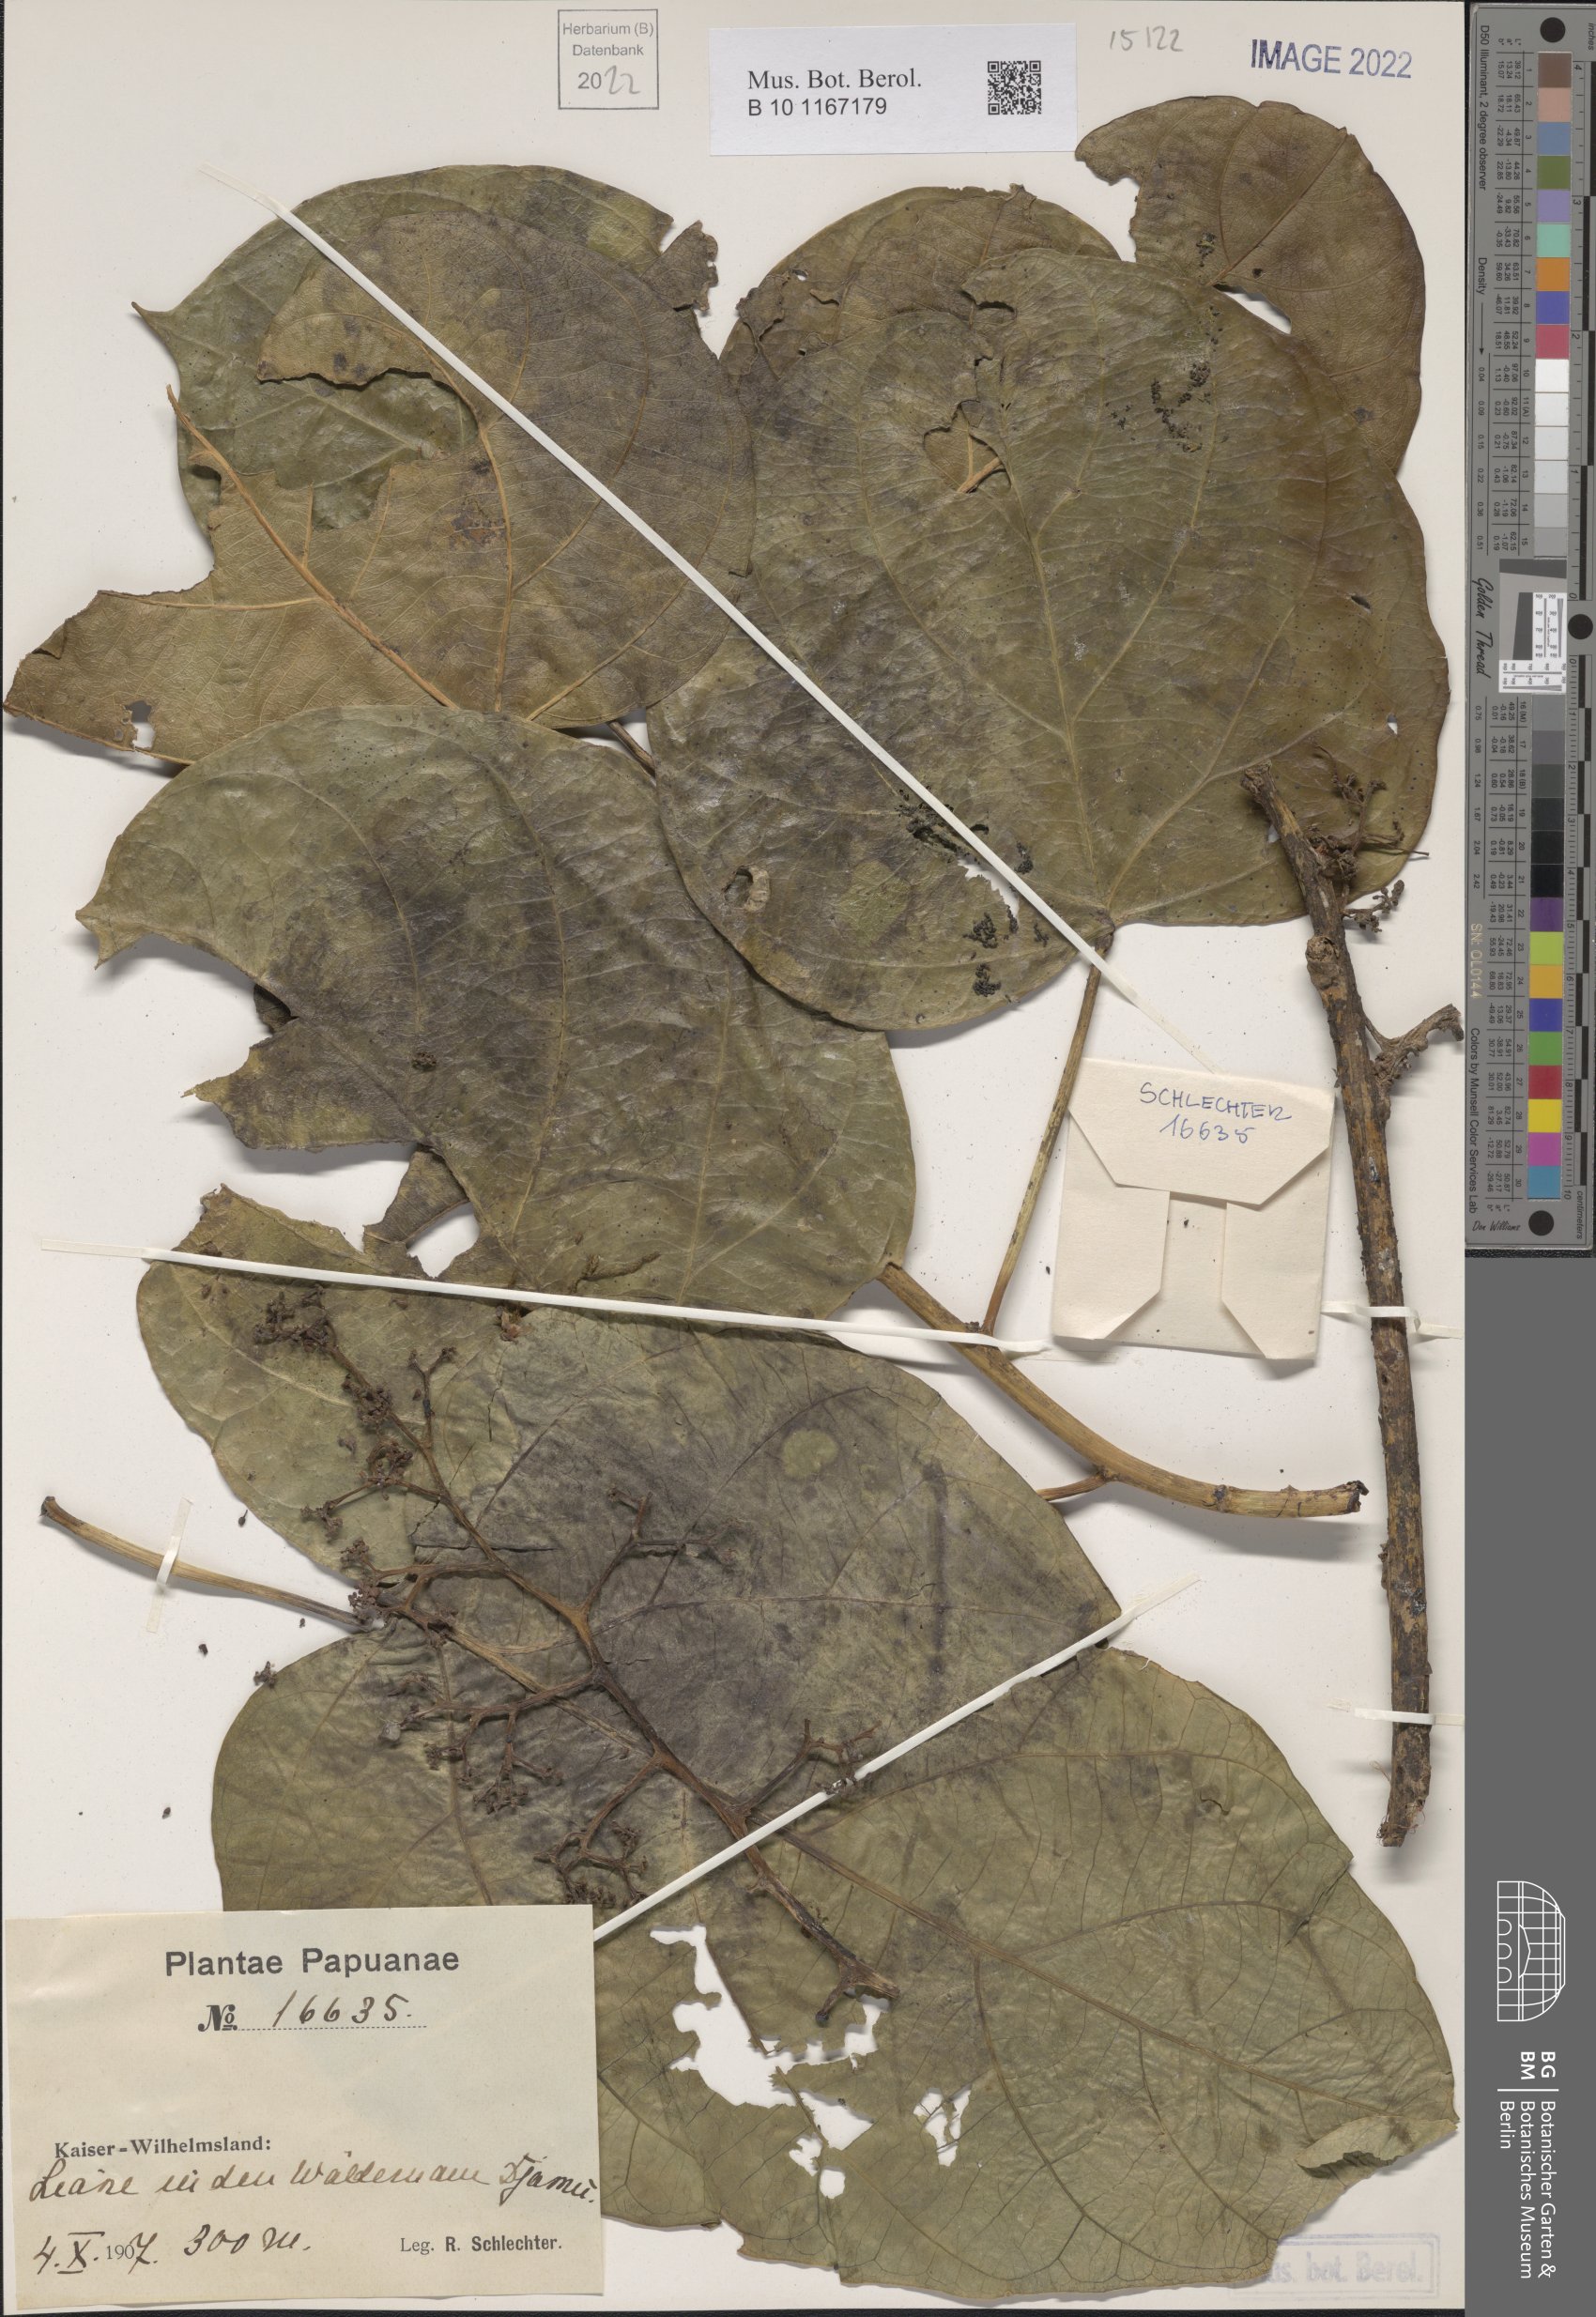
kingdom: Plantae
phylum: Tracheophyta
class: Magnoliopsida
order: Vitales
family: Vitaceae
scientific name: Vitaceae
